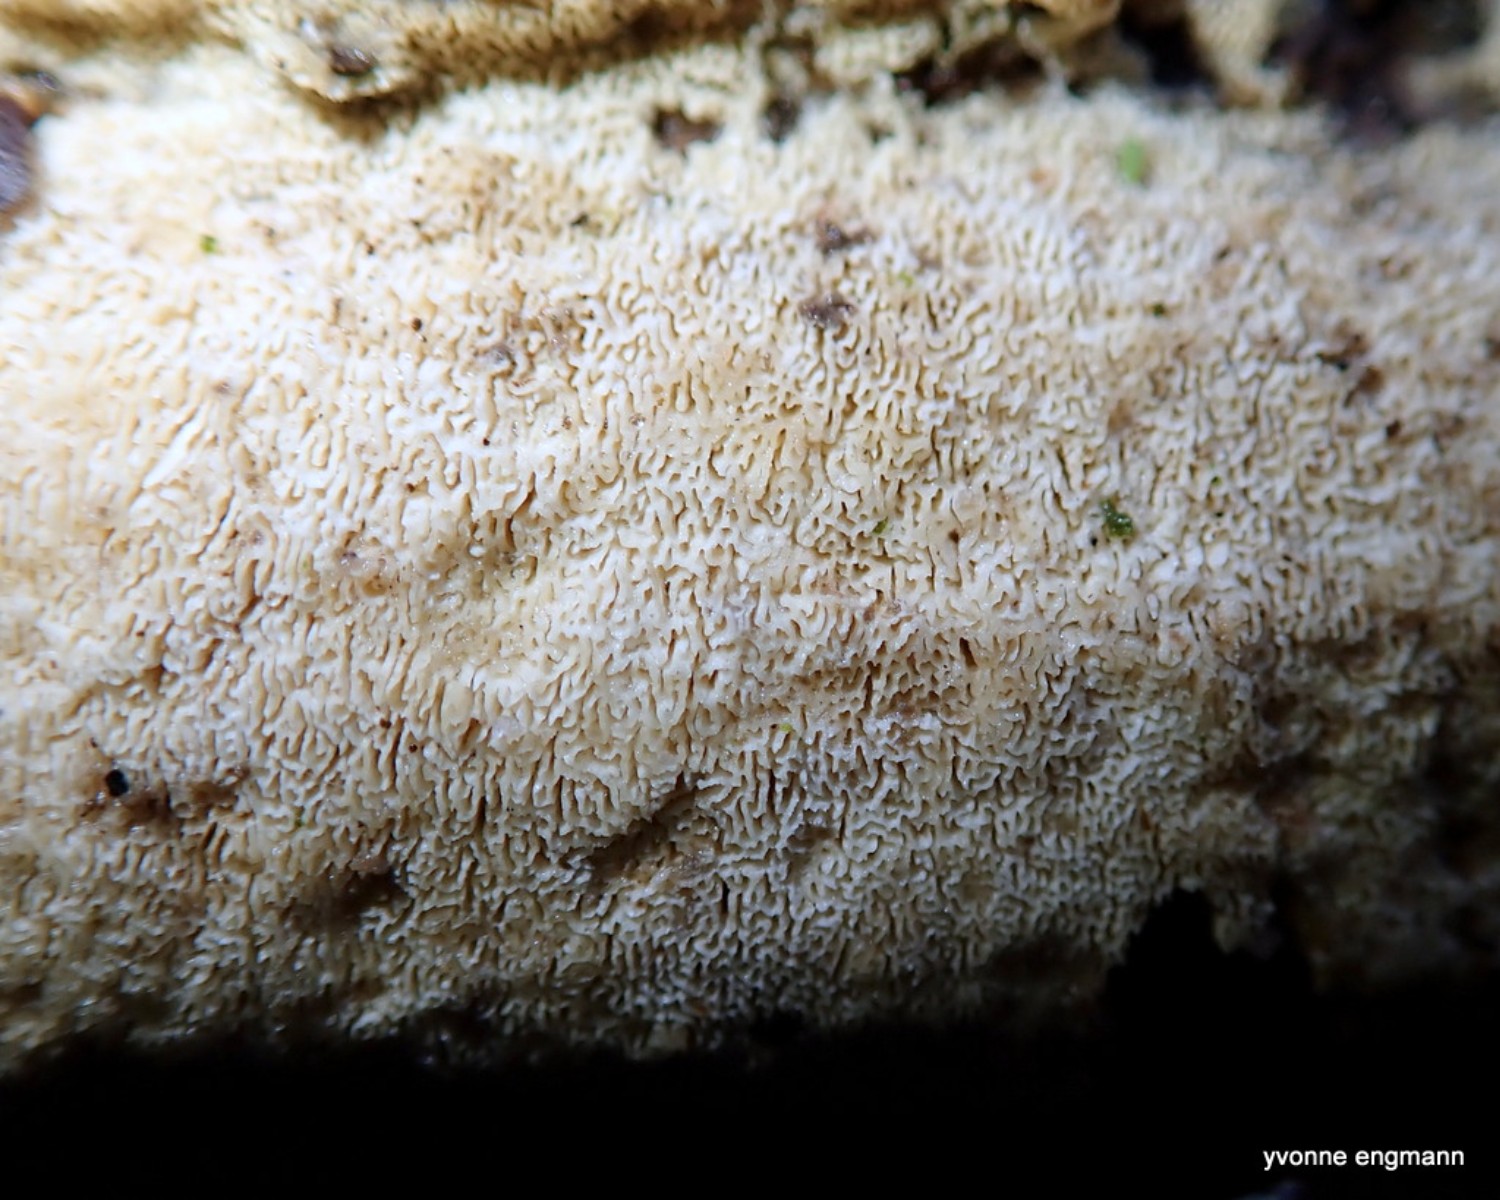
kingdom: Fungi
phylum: Basidiomycota
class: Agaricomycetes
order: Hymenochaetales
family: Schizoporaceae
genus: Xylodon
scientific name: Xylodon subtropicus
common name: labyrint-tandsvamp
